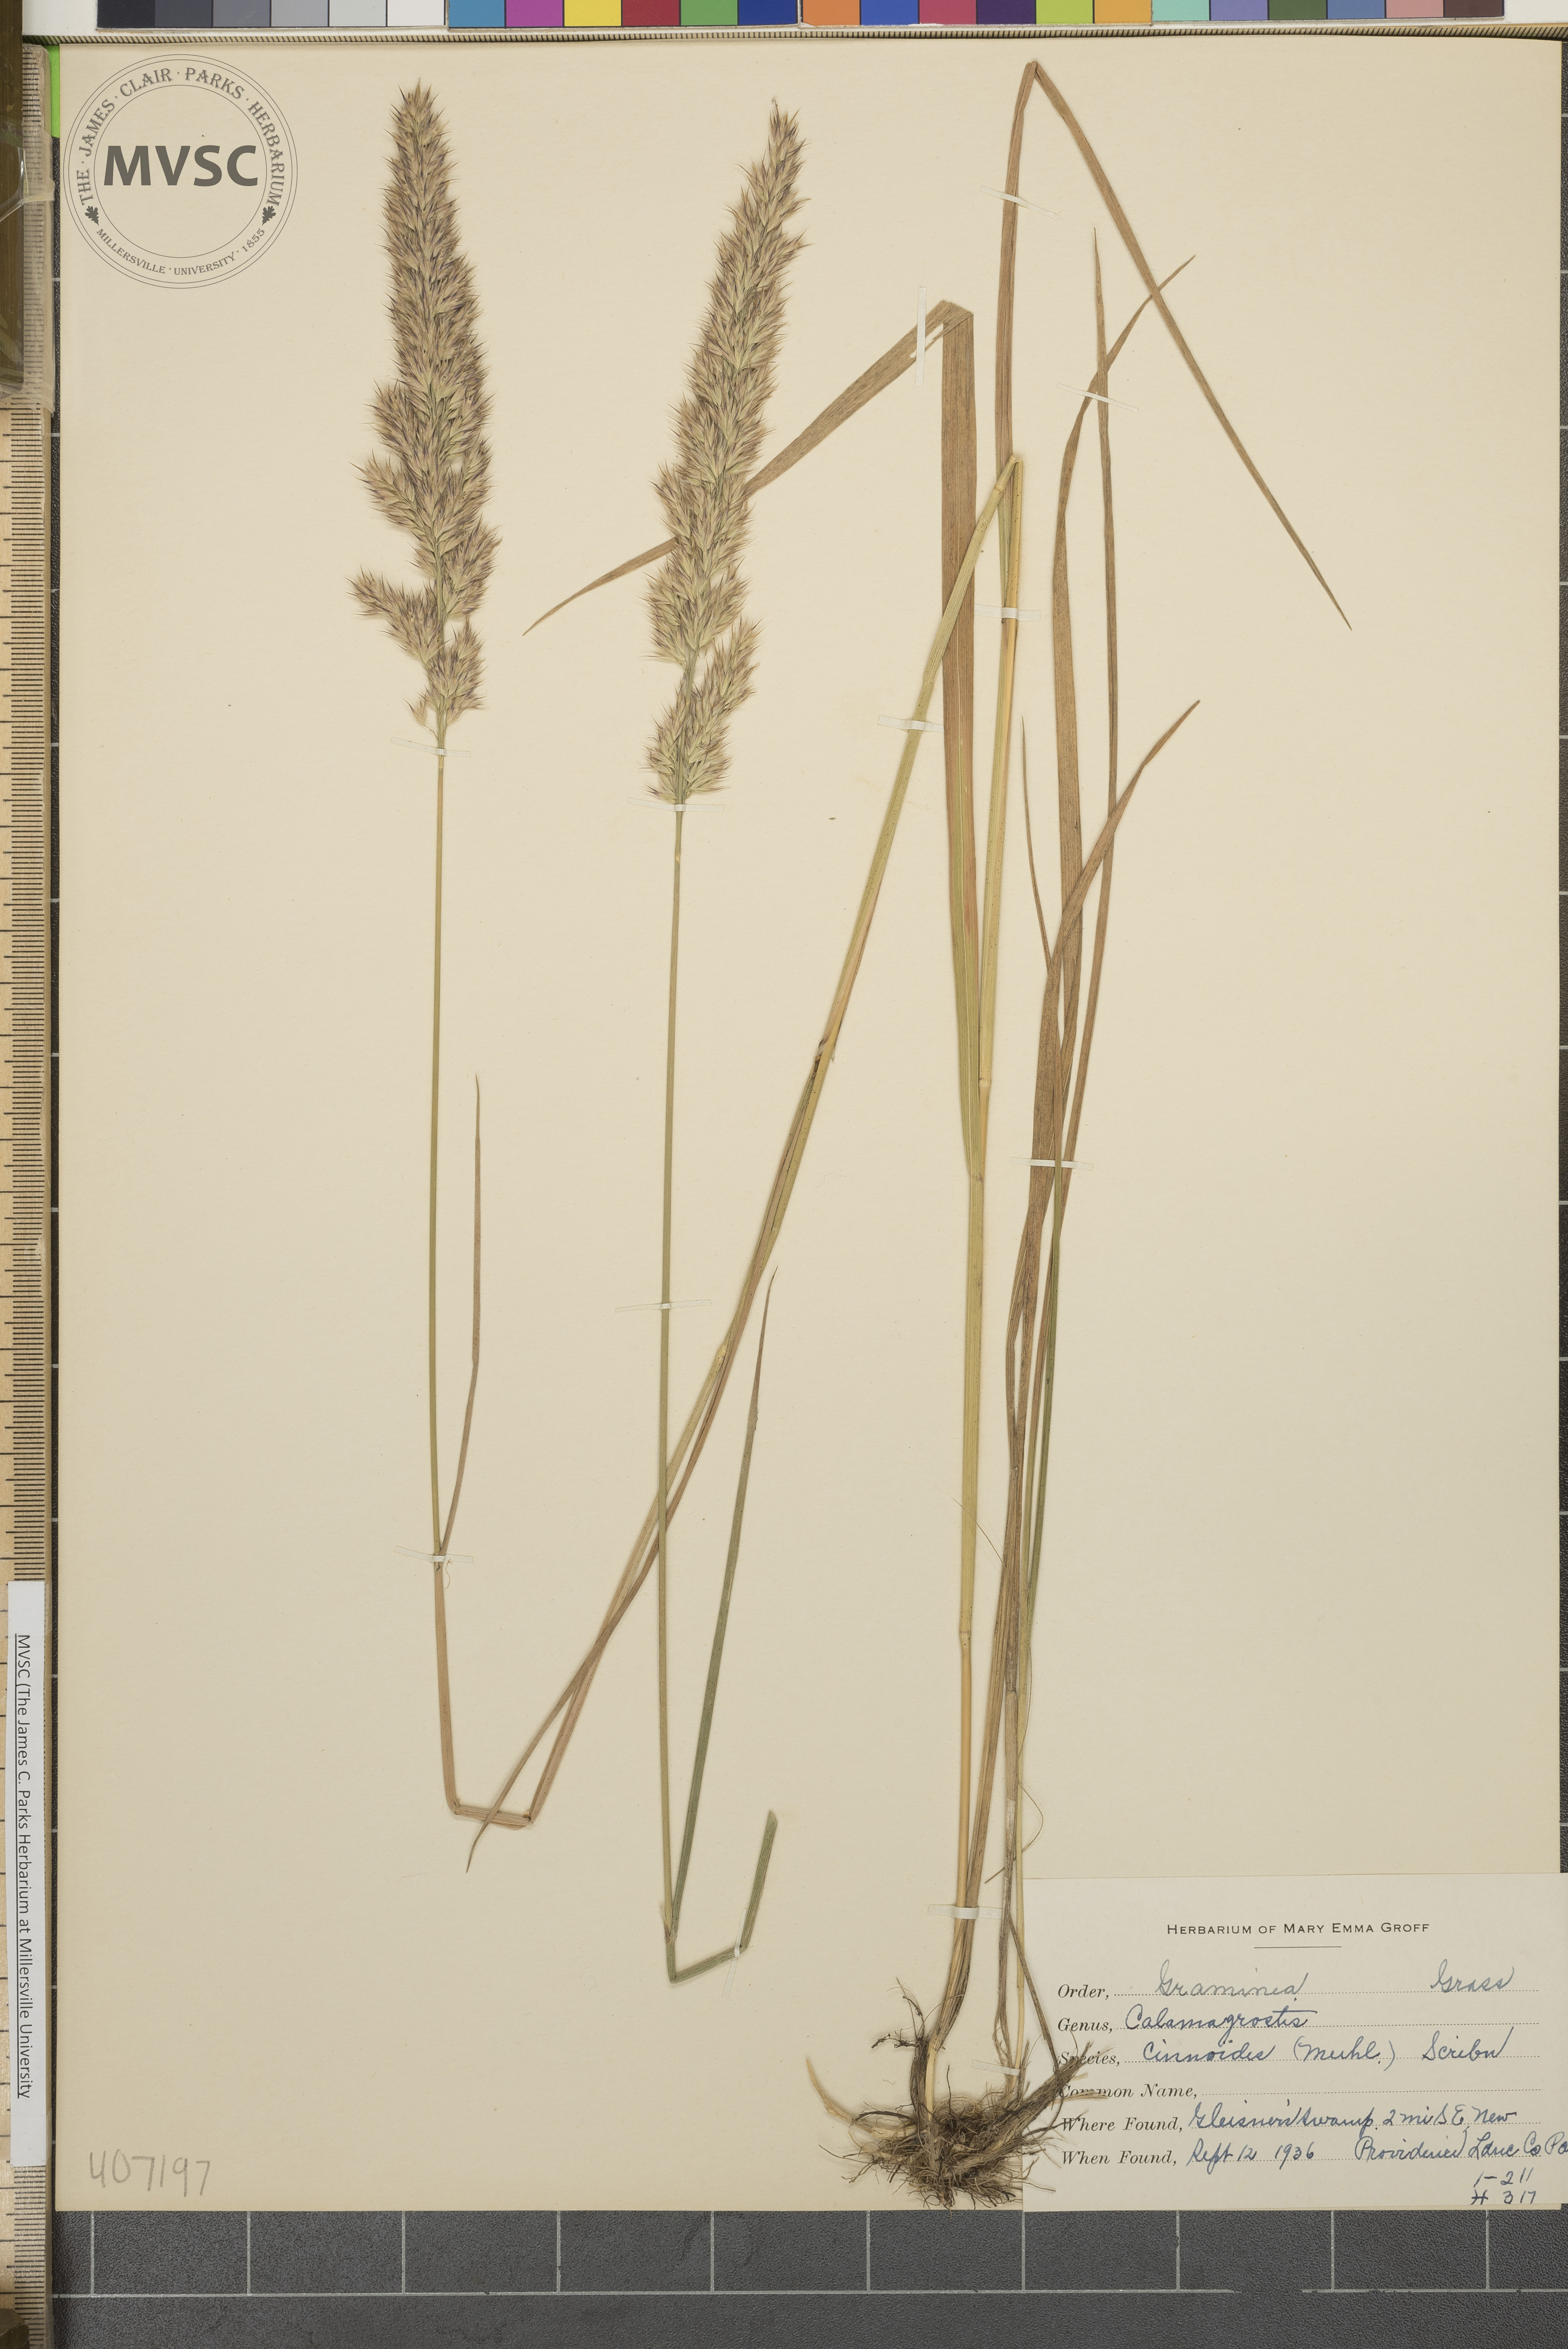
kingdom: Plantae
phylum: Tracheophyta
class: Liliopsida
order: Poales
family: Poaceae
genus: Calamagrostis
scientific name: Calamagrostis cinnoides
